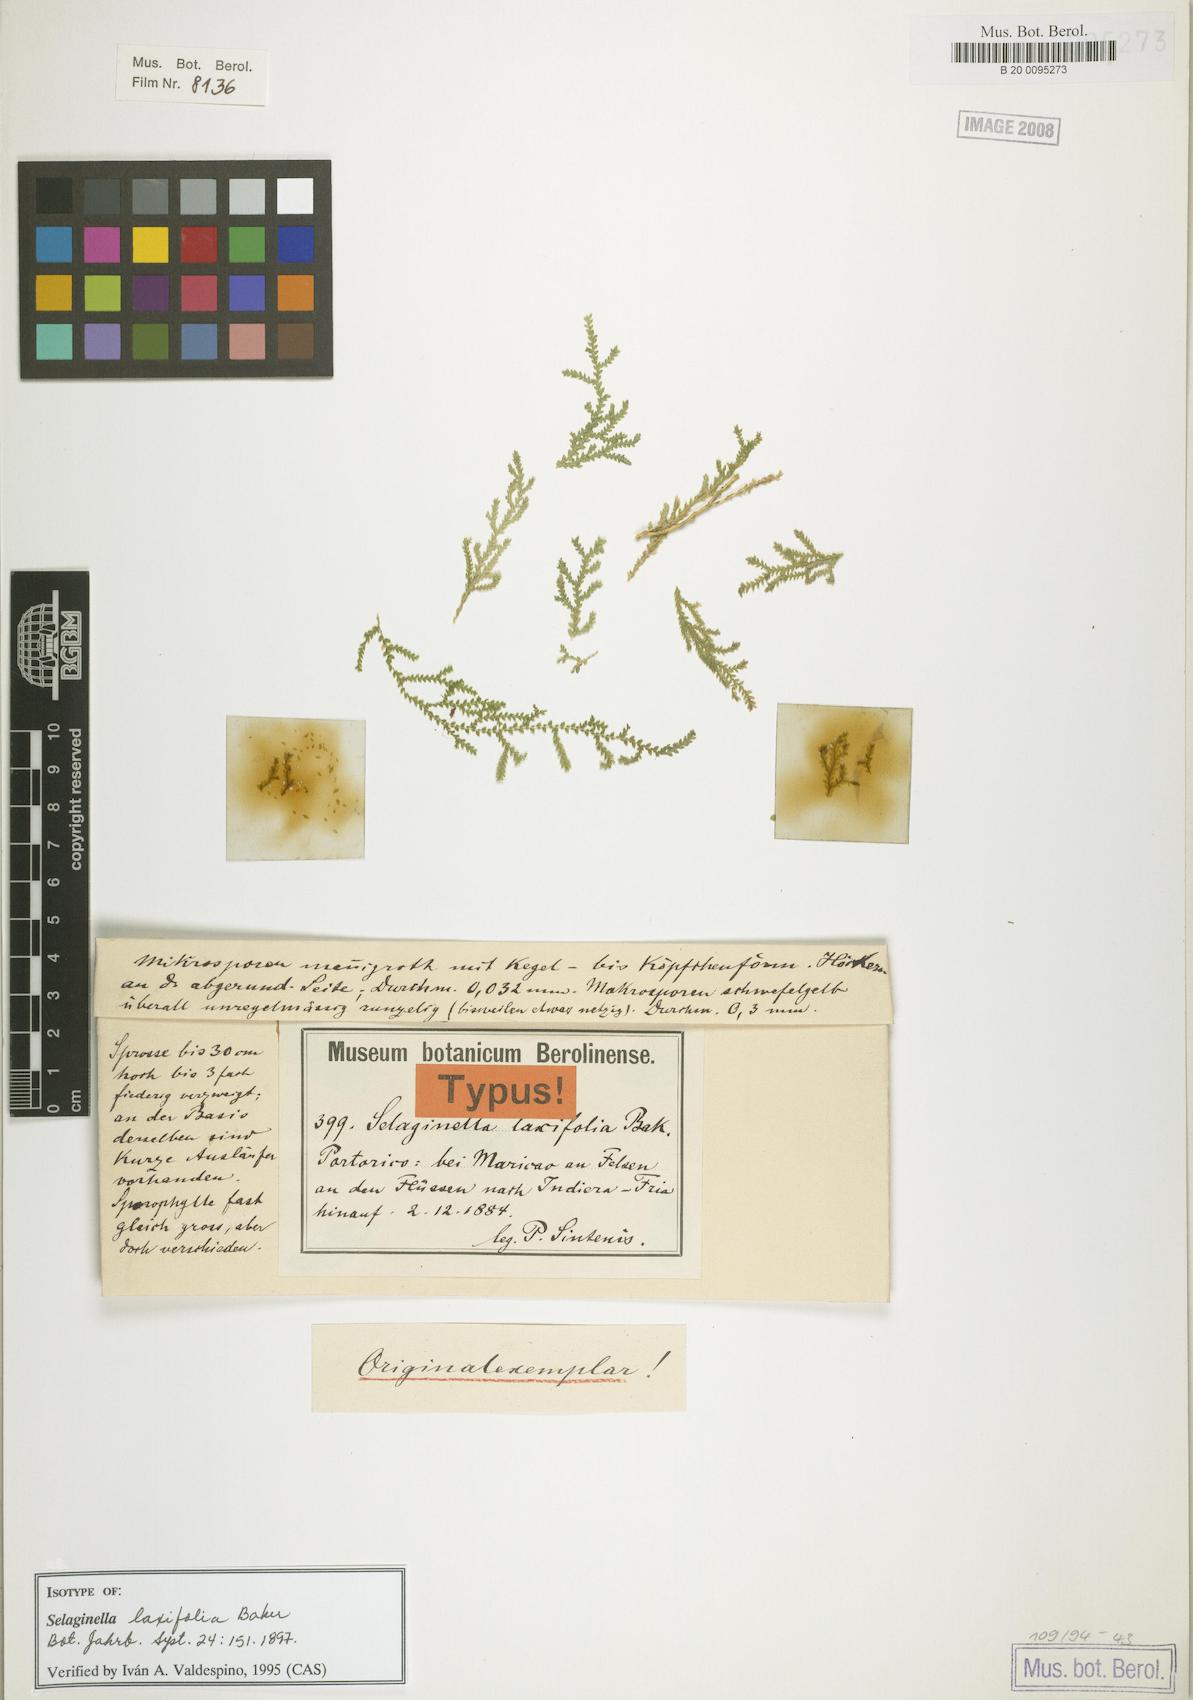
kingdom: Plantae
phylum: Tracheophyta
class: Lycopodiopsida
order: Selaginellales
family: Selaginellaceae
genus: Selaginella
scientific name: Selaginella laxifolia
